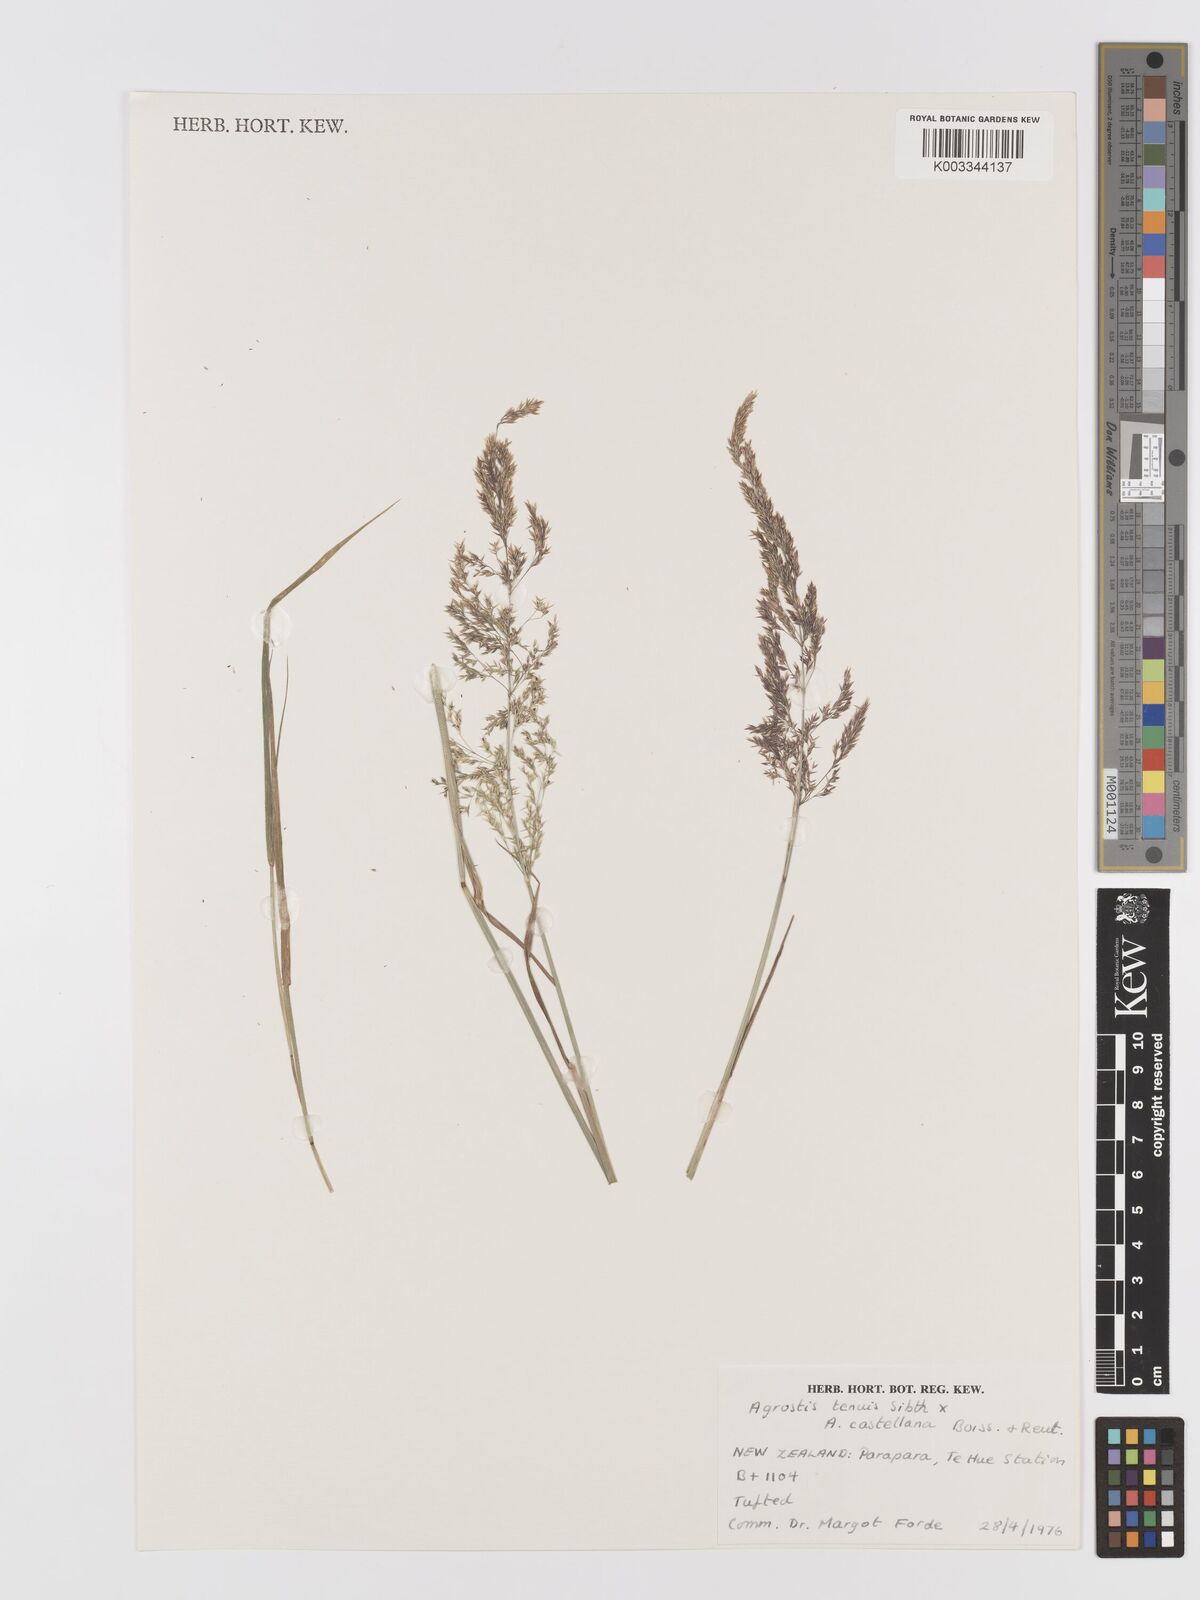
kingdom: Plantae
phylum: Tracheophyta
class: Liliopsida
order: Poales
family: Poaceae
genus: Agrostis
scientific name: Agrostis capillaris
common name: Colonial bentgrass
